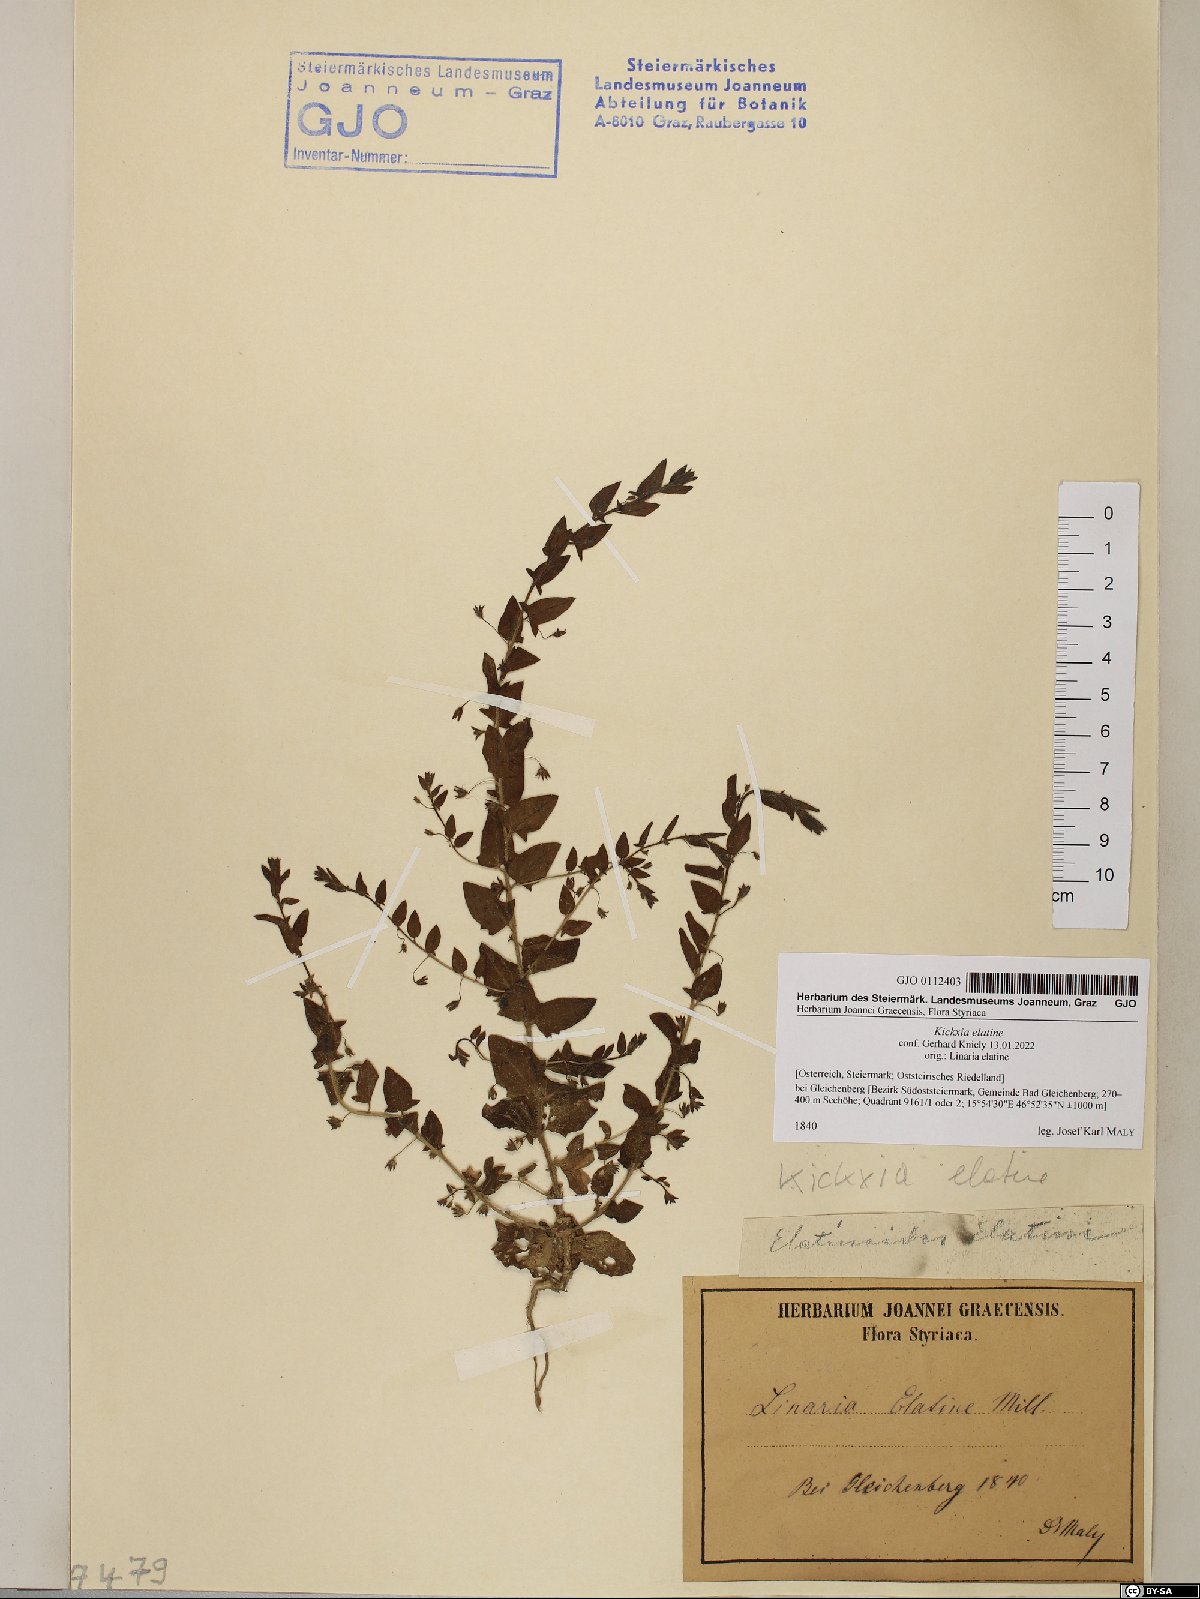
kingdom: Plantae
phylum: Tracheophyta
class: Magnoliopsida
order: Lamiales
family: Plantaginaceae
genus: Kickxia
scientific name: Kickxia elatine
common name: Sharp-leaved fluellen
